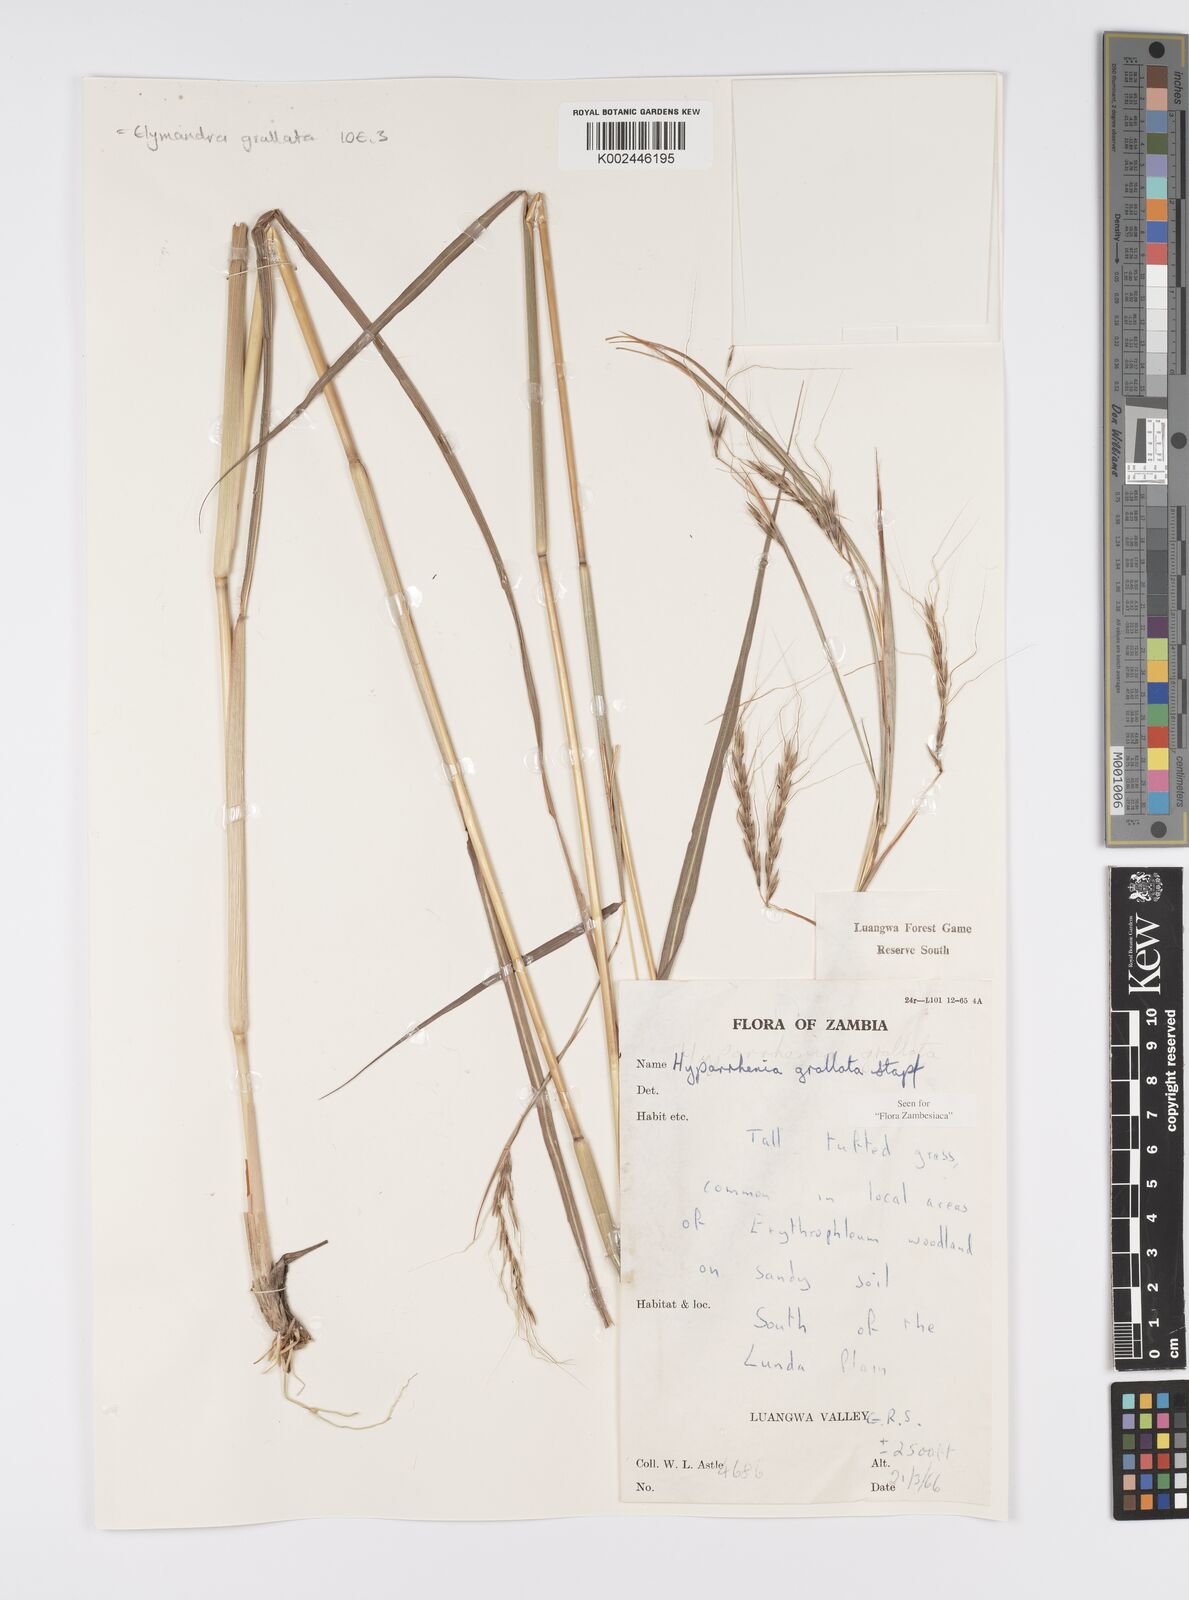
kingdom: Plantae
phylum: Tracheophyta
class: Liliopsida
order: Poales
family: Poaceae
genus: Elymandra
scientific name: Elymandra grallata
